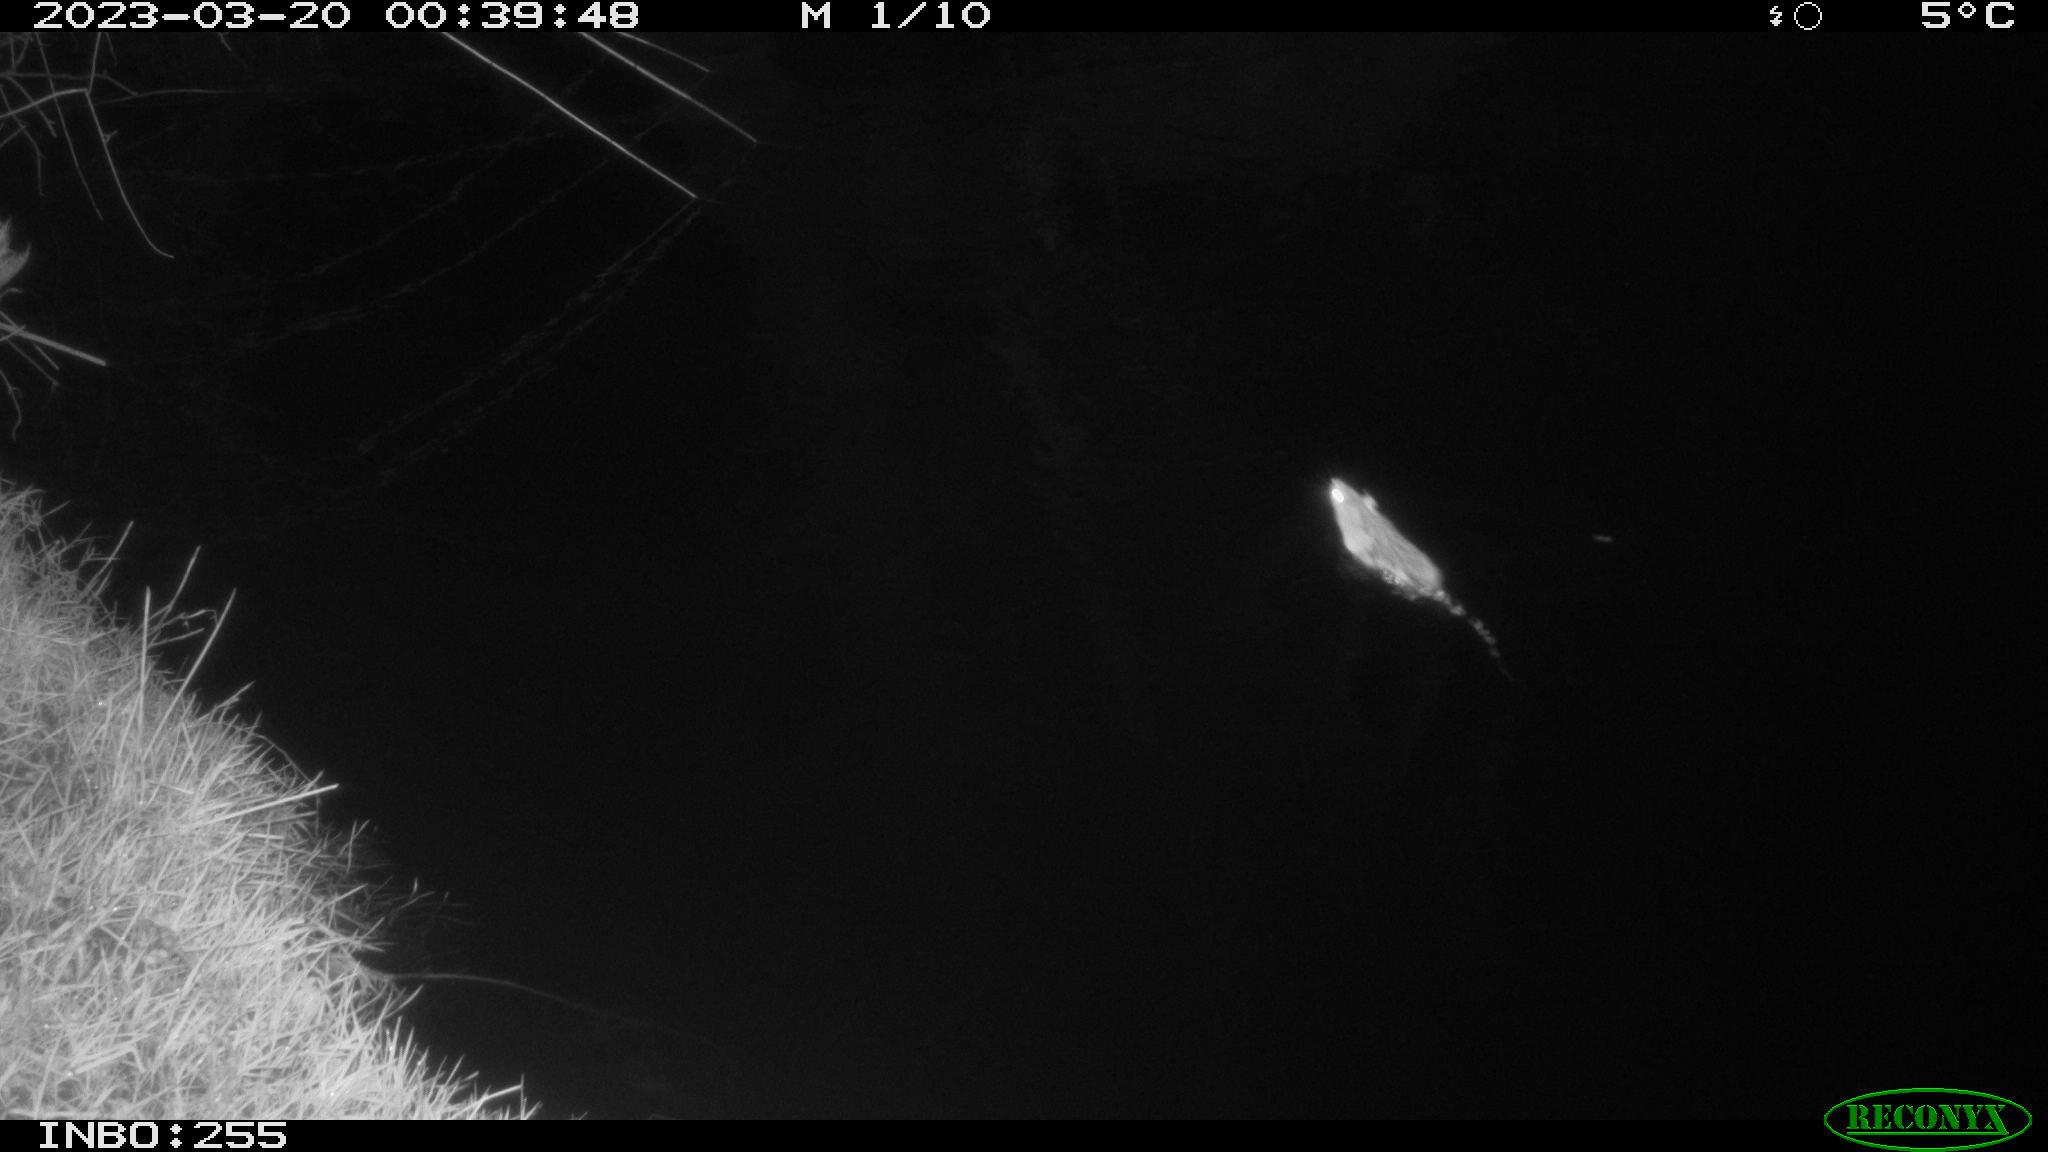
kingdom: Animalia
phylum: Chordata
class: Mammalia
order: Rodentia
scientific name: Rodentia
